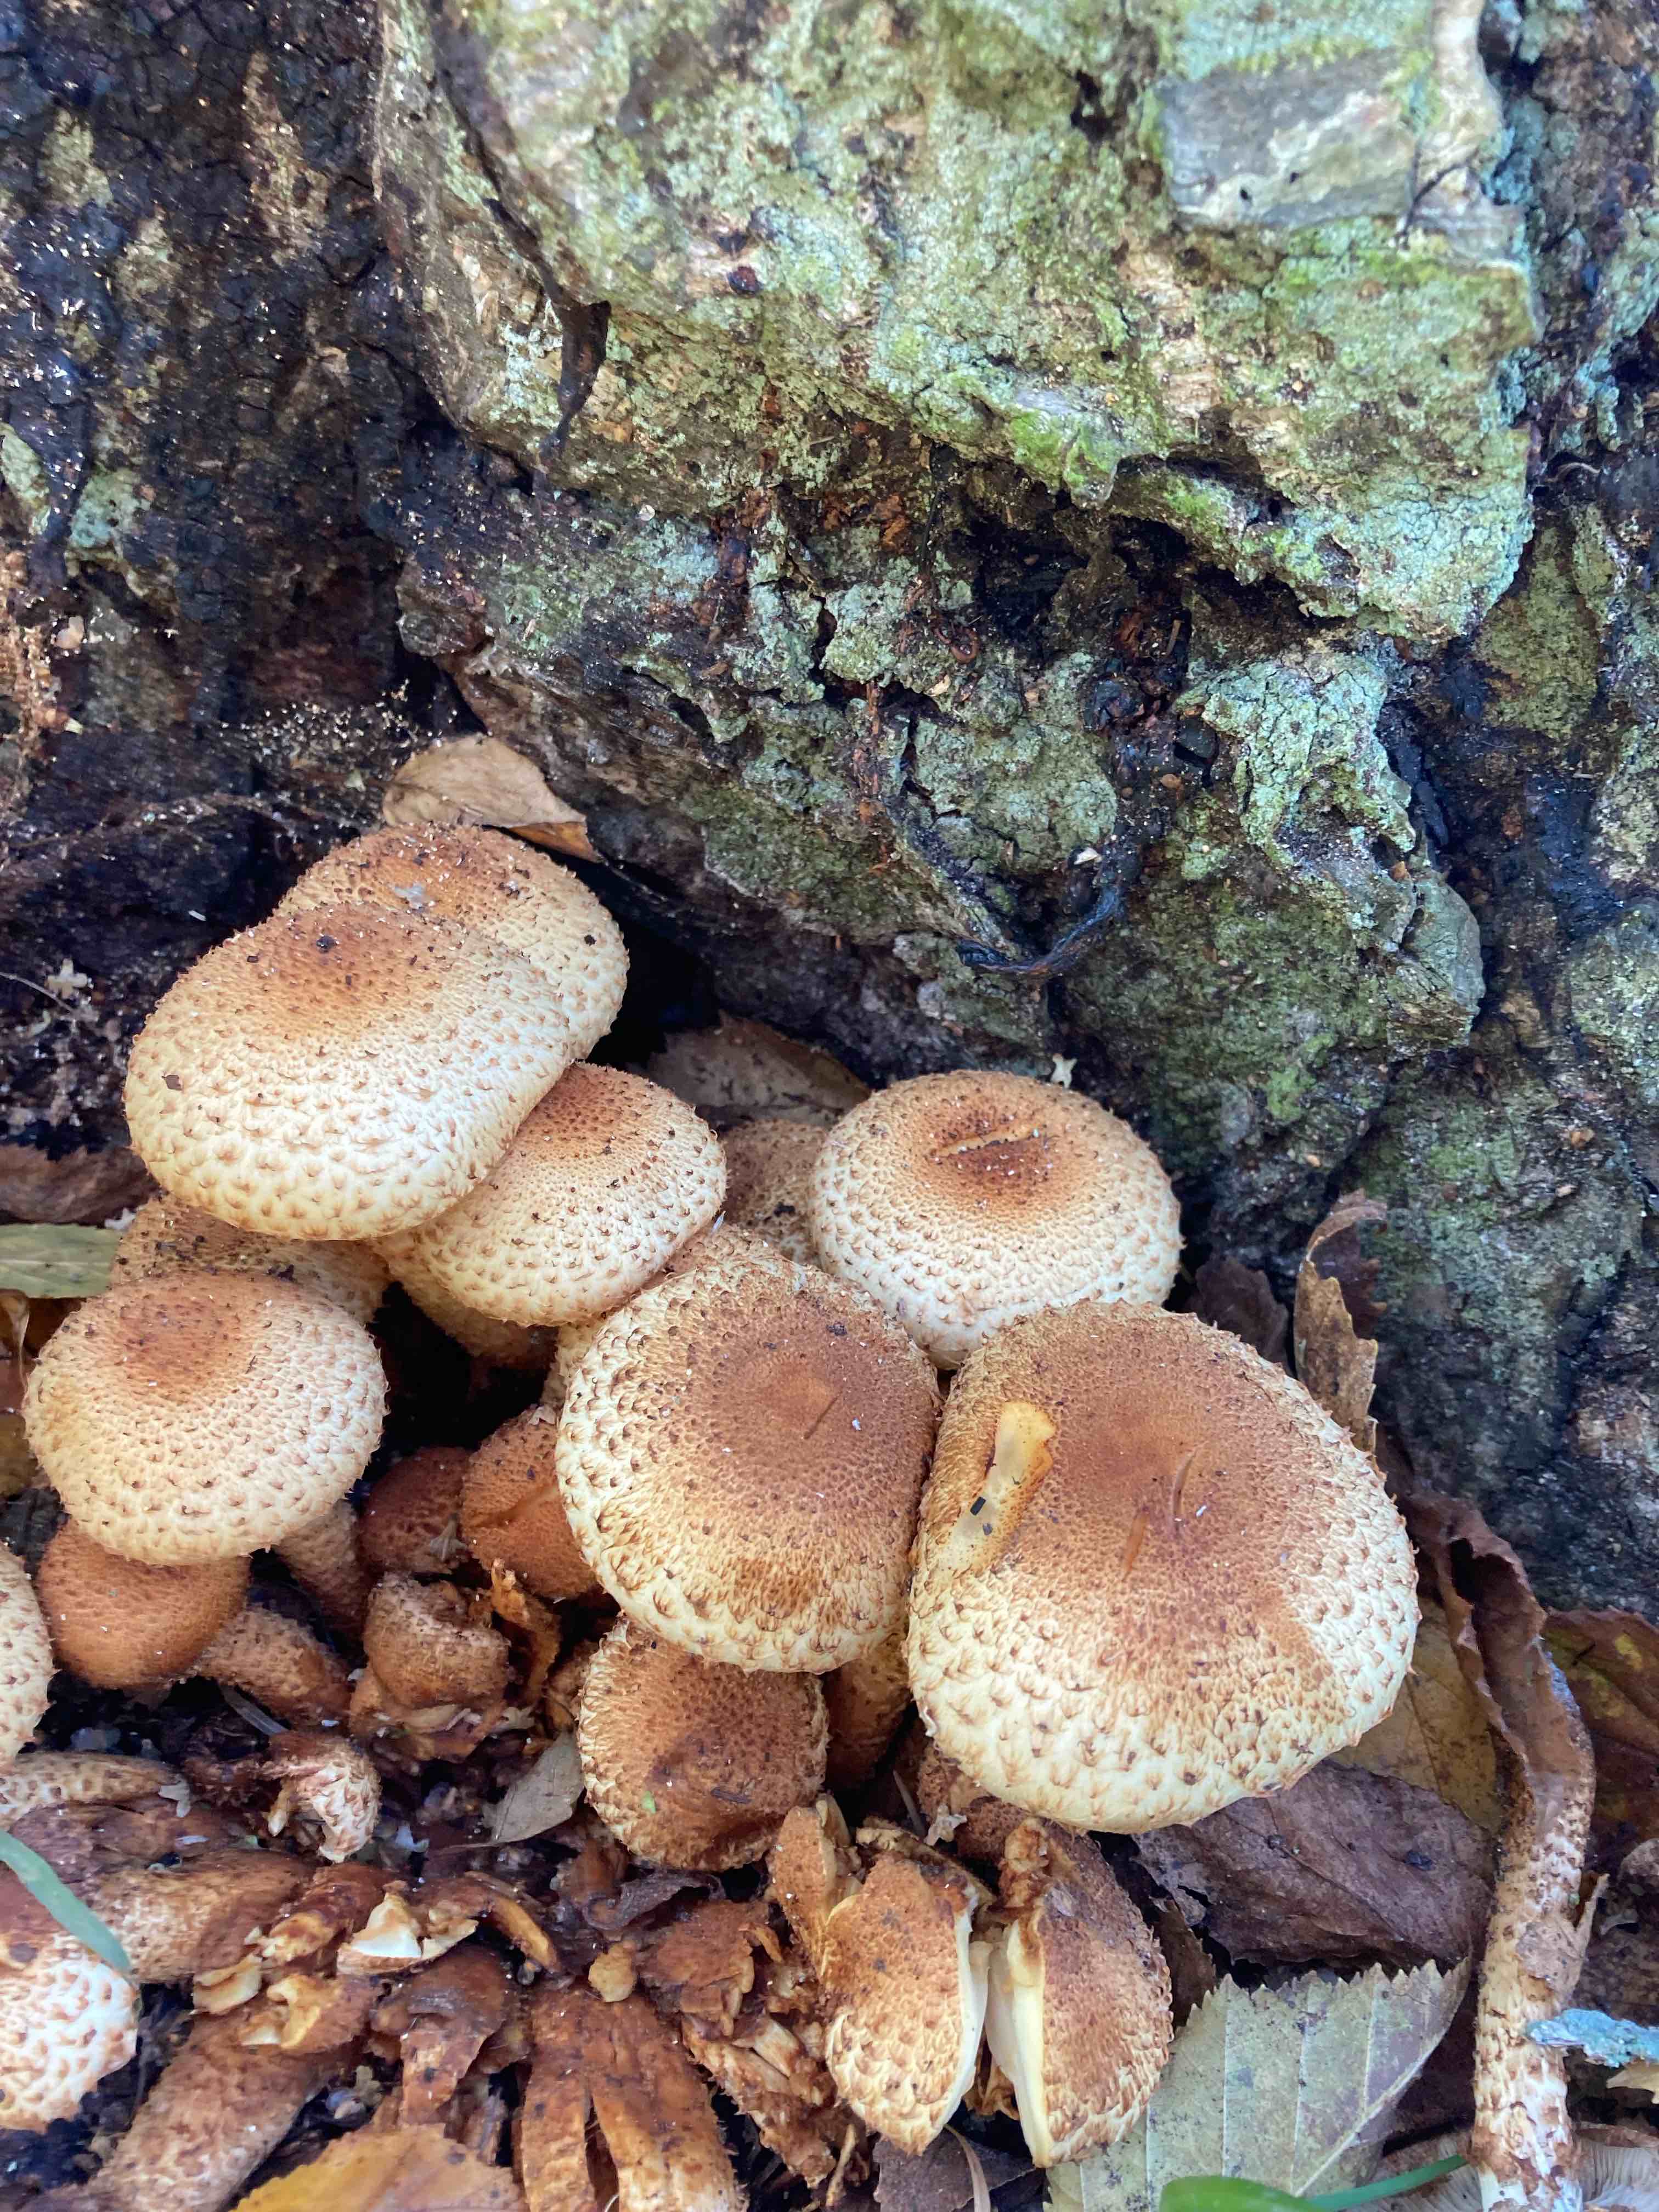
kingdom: Fungi
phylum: Basidiomycota
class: Agaricomycetes
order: Agaricales
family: Strophariaceae
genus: Pholiota
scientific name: Pholiota squarrosa
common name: krumskællet skælhat
